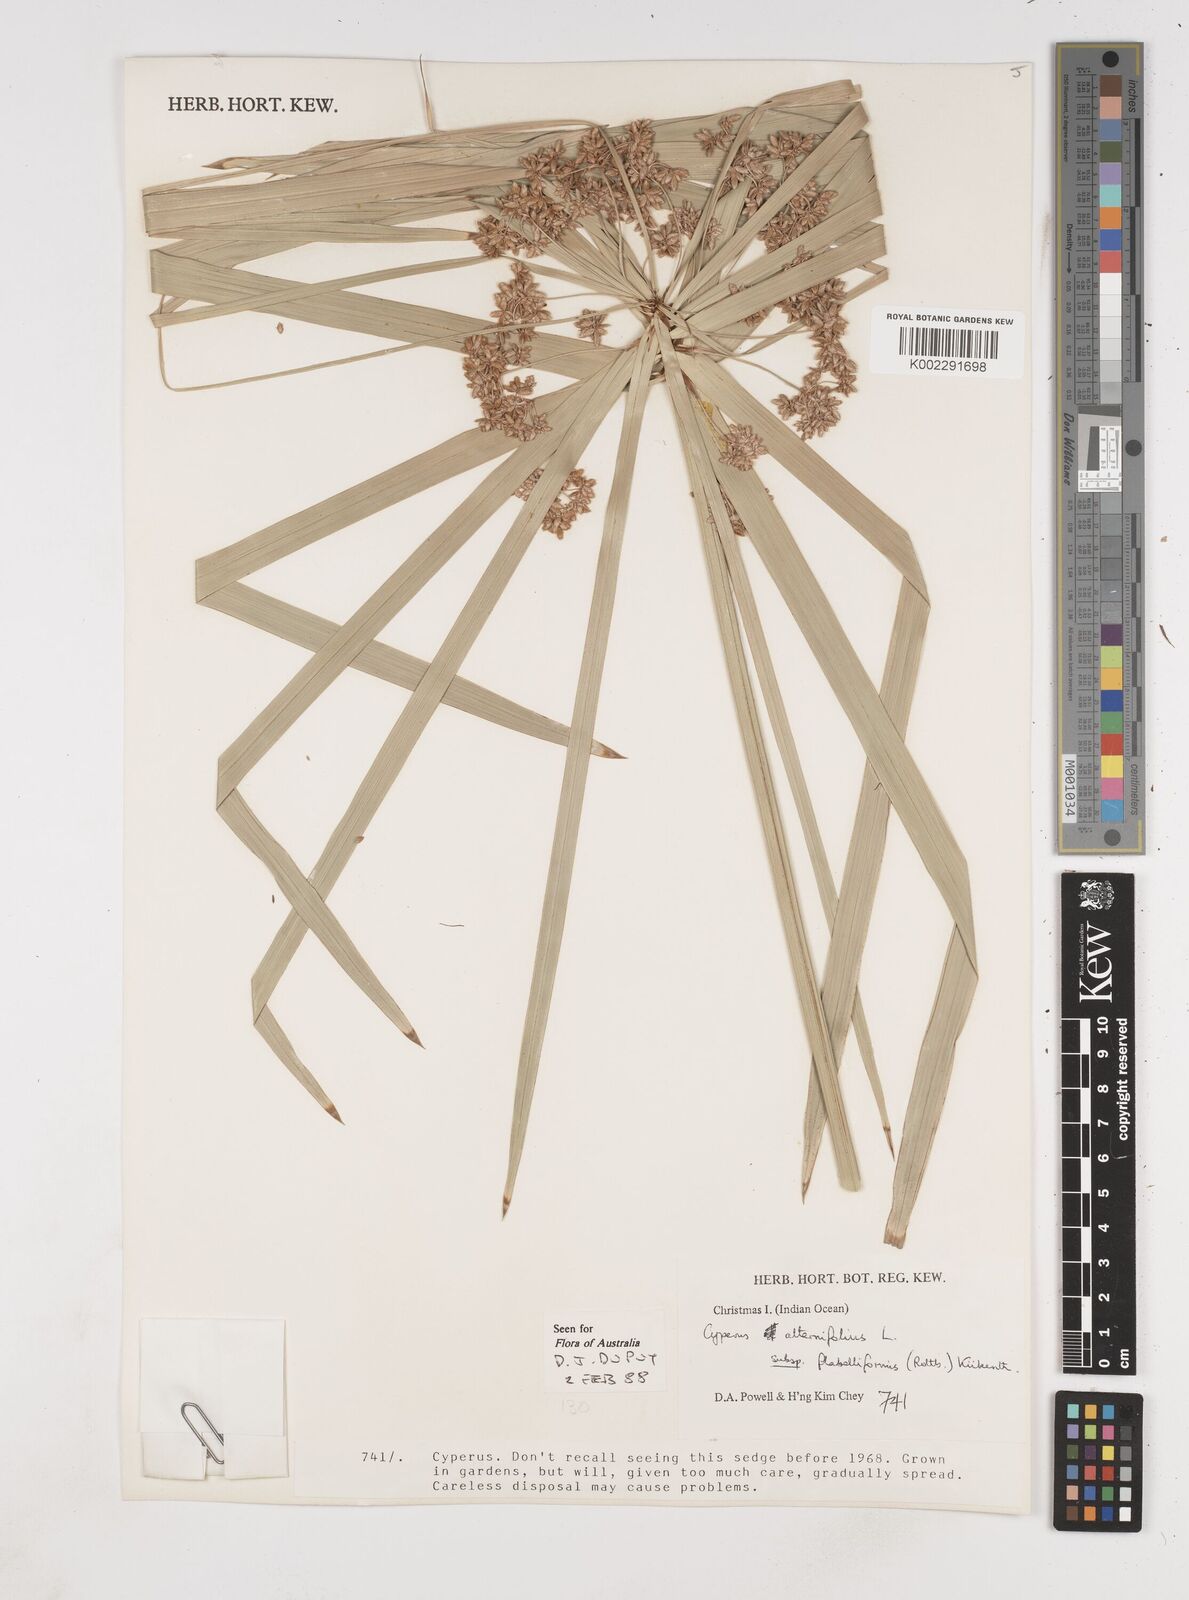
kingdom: Plantae
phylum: Tracheophyta
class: Liliopsida
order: Poales
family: Cyperaceae
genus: Cyperus
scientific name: Cyperus alternifolius
